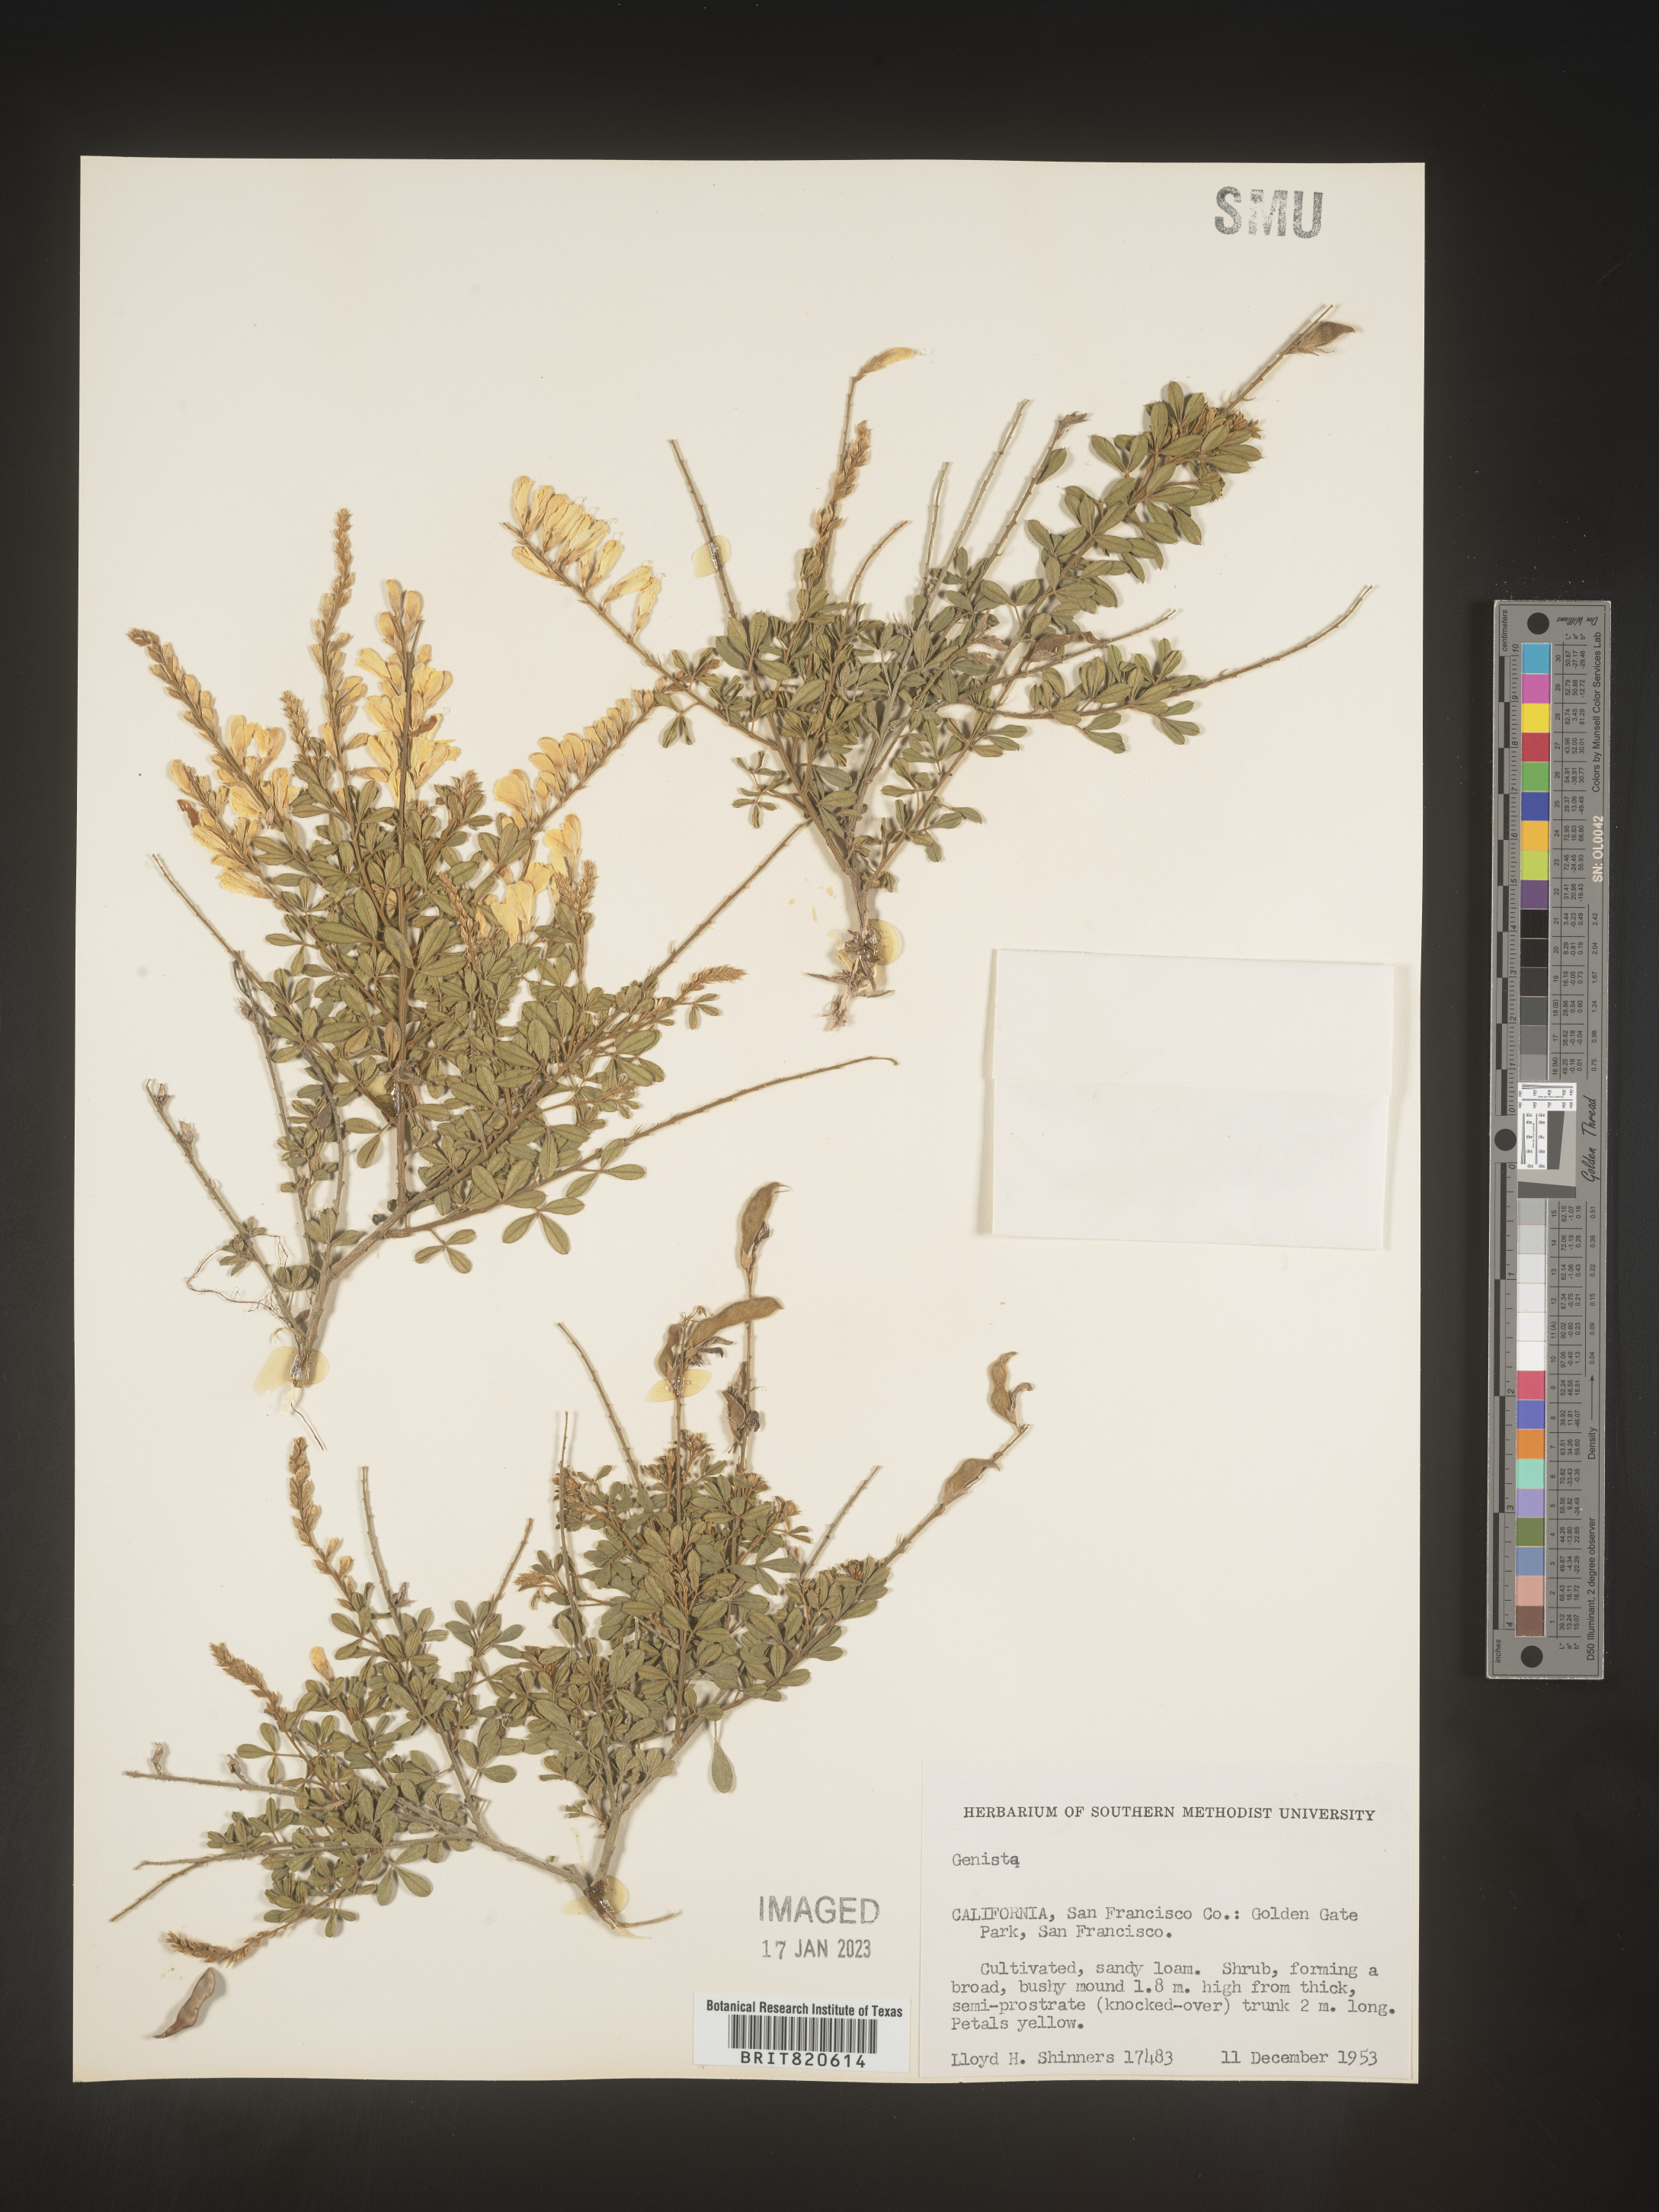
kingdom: Plantae
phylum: Tracheophyta
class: Magnoliopsida
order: Fabales
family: Fabaceae
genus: Genista
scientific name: Genista
